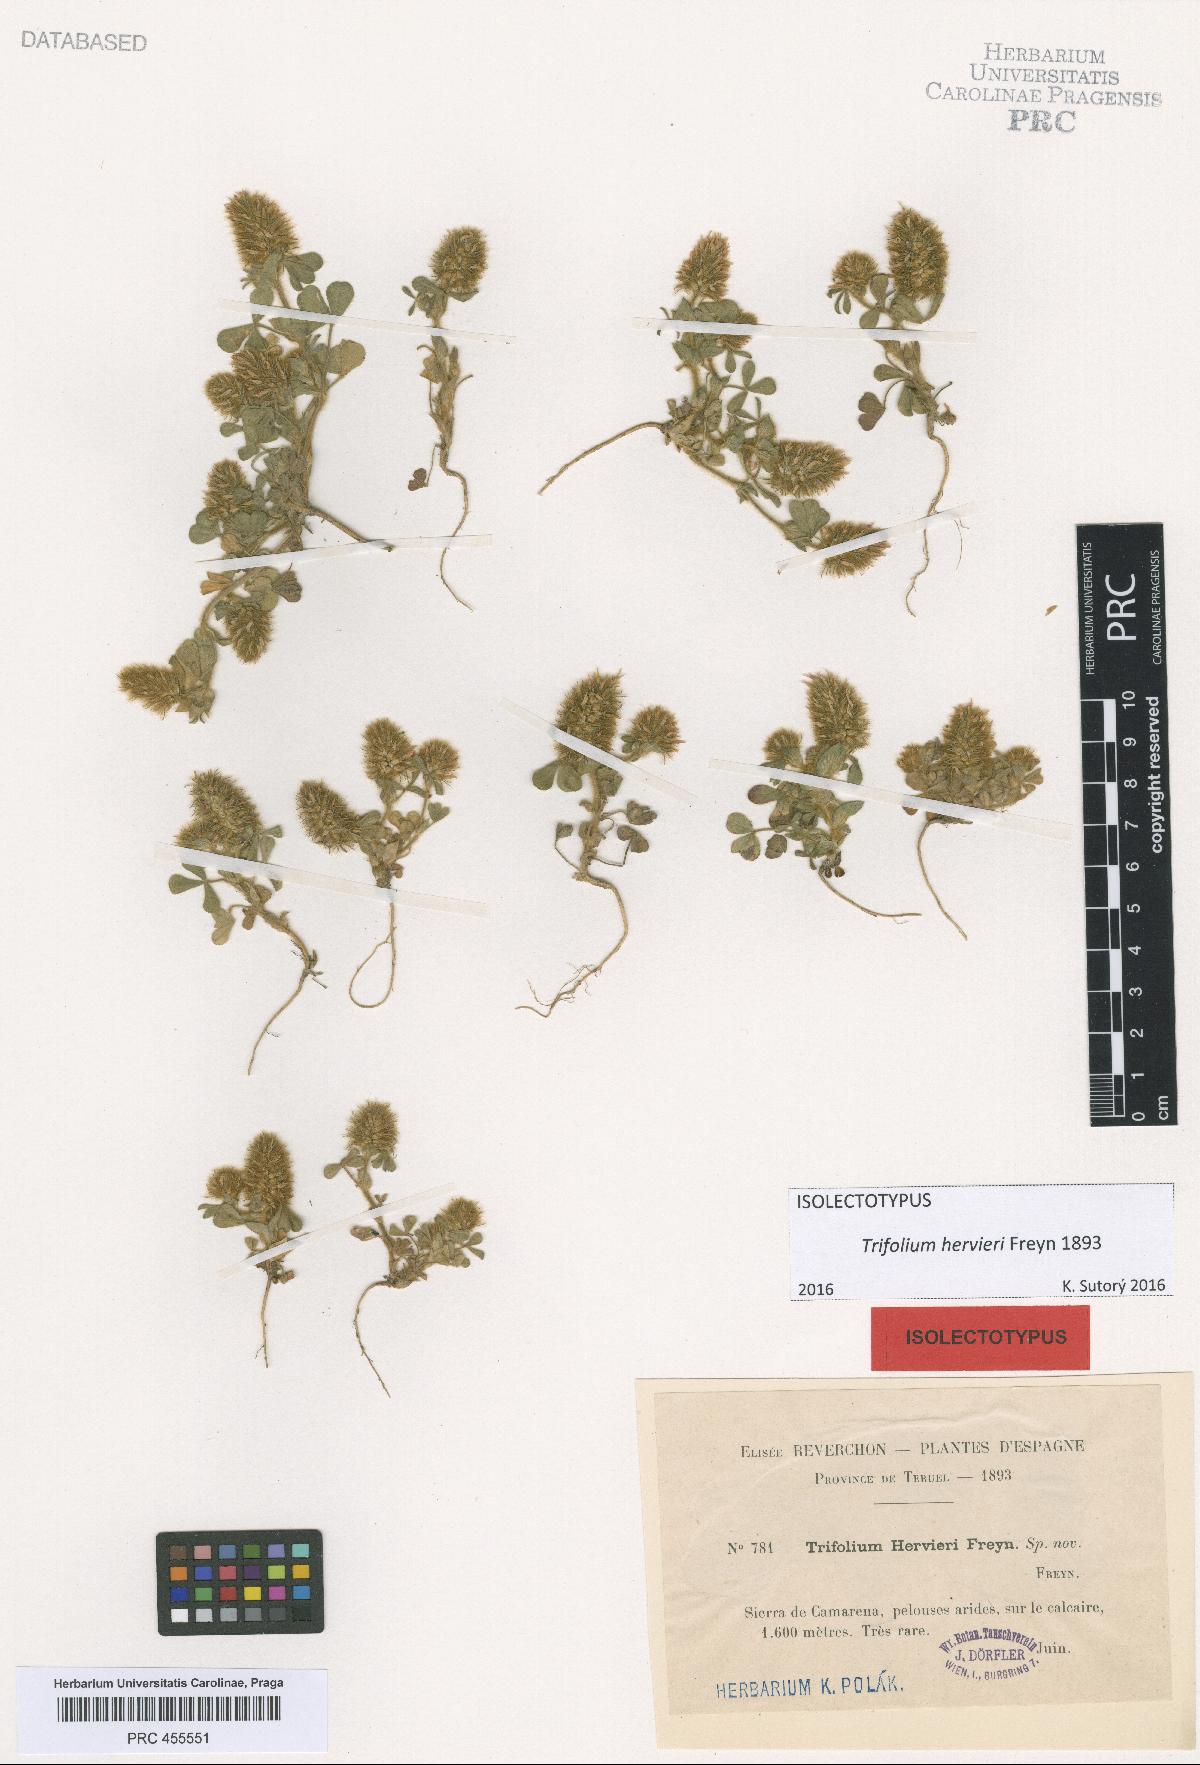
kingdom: Plantae
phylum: Tracheophyta
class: Magnoliopsida
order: Fabales
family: Fabaceae
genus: Trifolium
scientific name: Trifolium sylvaticum
